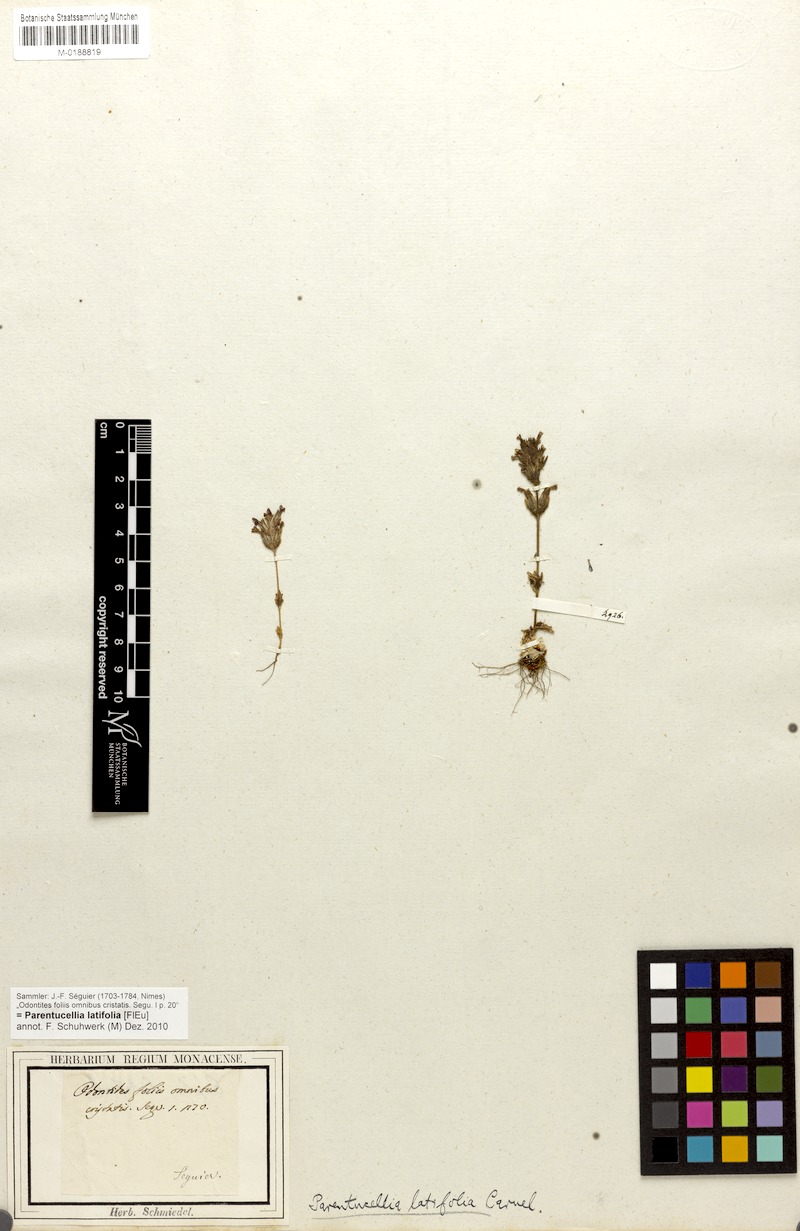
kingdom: Plantae
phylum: Tracheophyta
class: Magnoliopsida
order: Lamiales
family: Orobanchaceae
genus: Parentucellia
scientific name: Parentucellia latifolia
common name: Broadleaf glandweed
